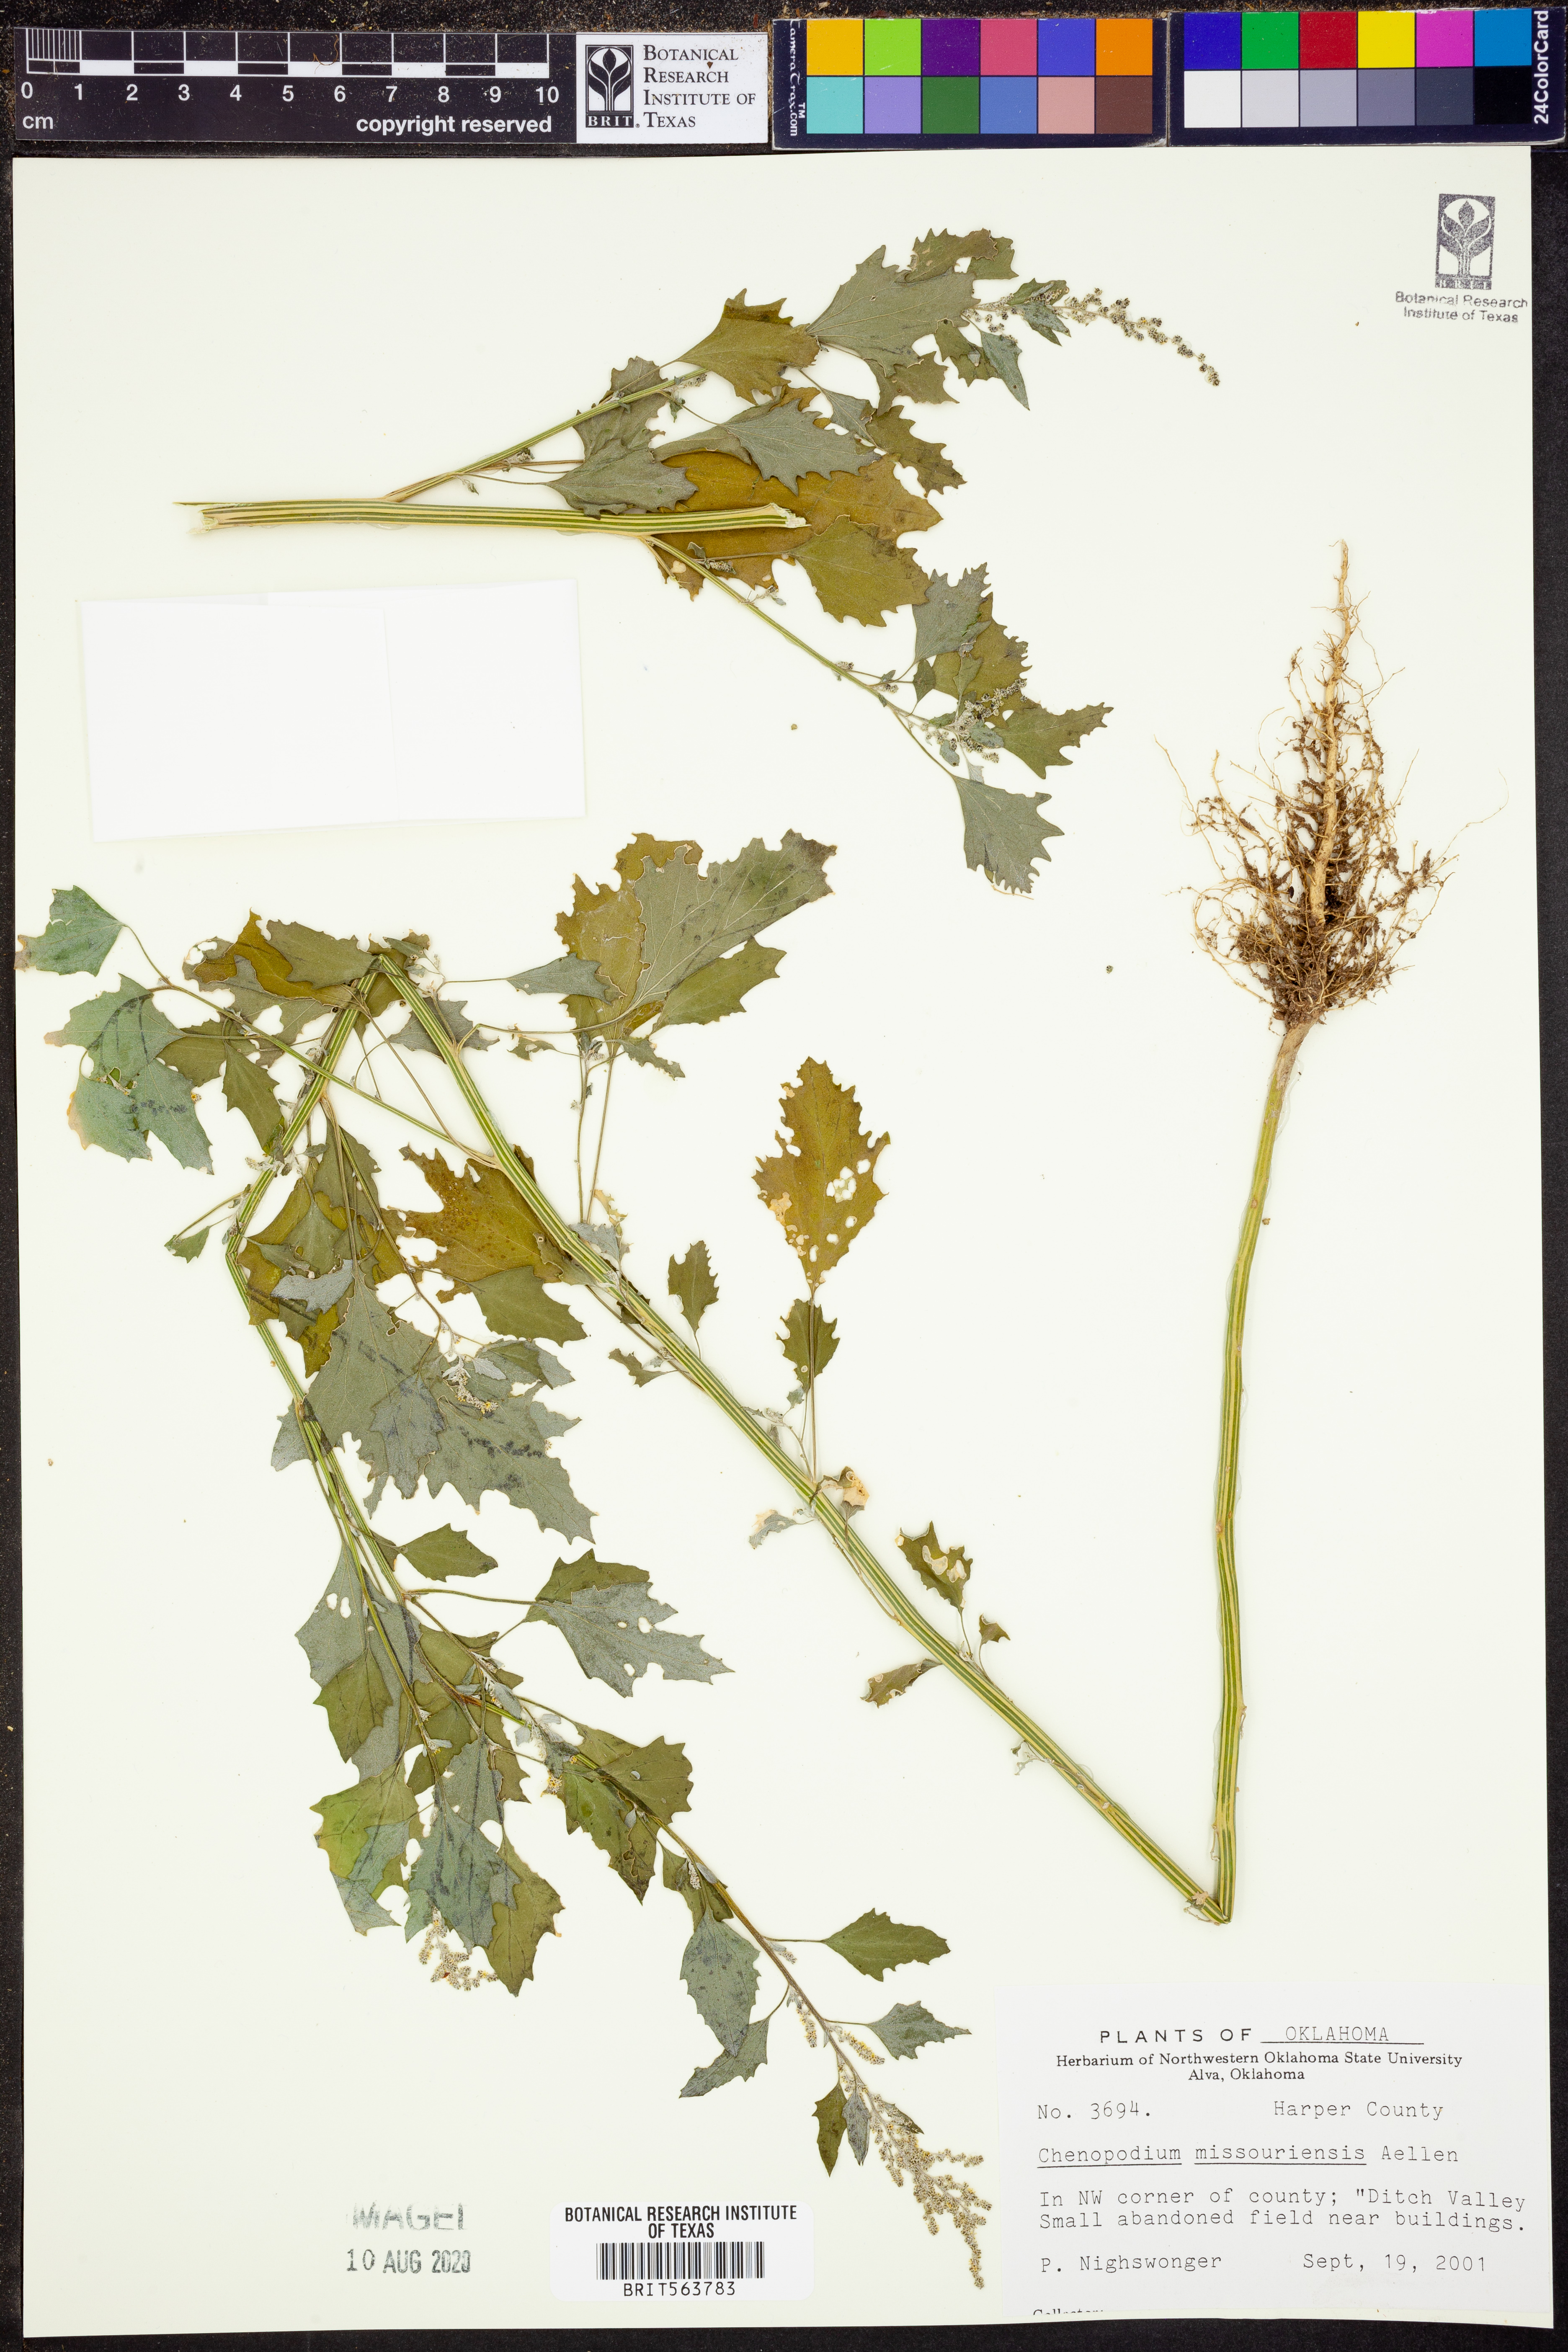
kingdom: Plantae
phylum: Tracheophyta
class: Magnoliopsida
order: Caryophyllales
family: Amaranthaceae
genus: Chenopodium
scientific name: Chenopodium album
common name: Fat-hen
